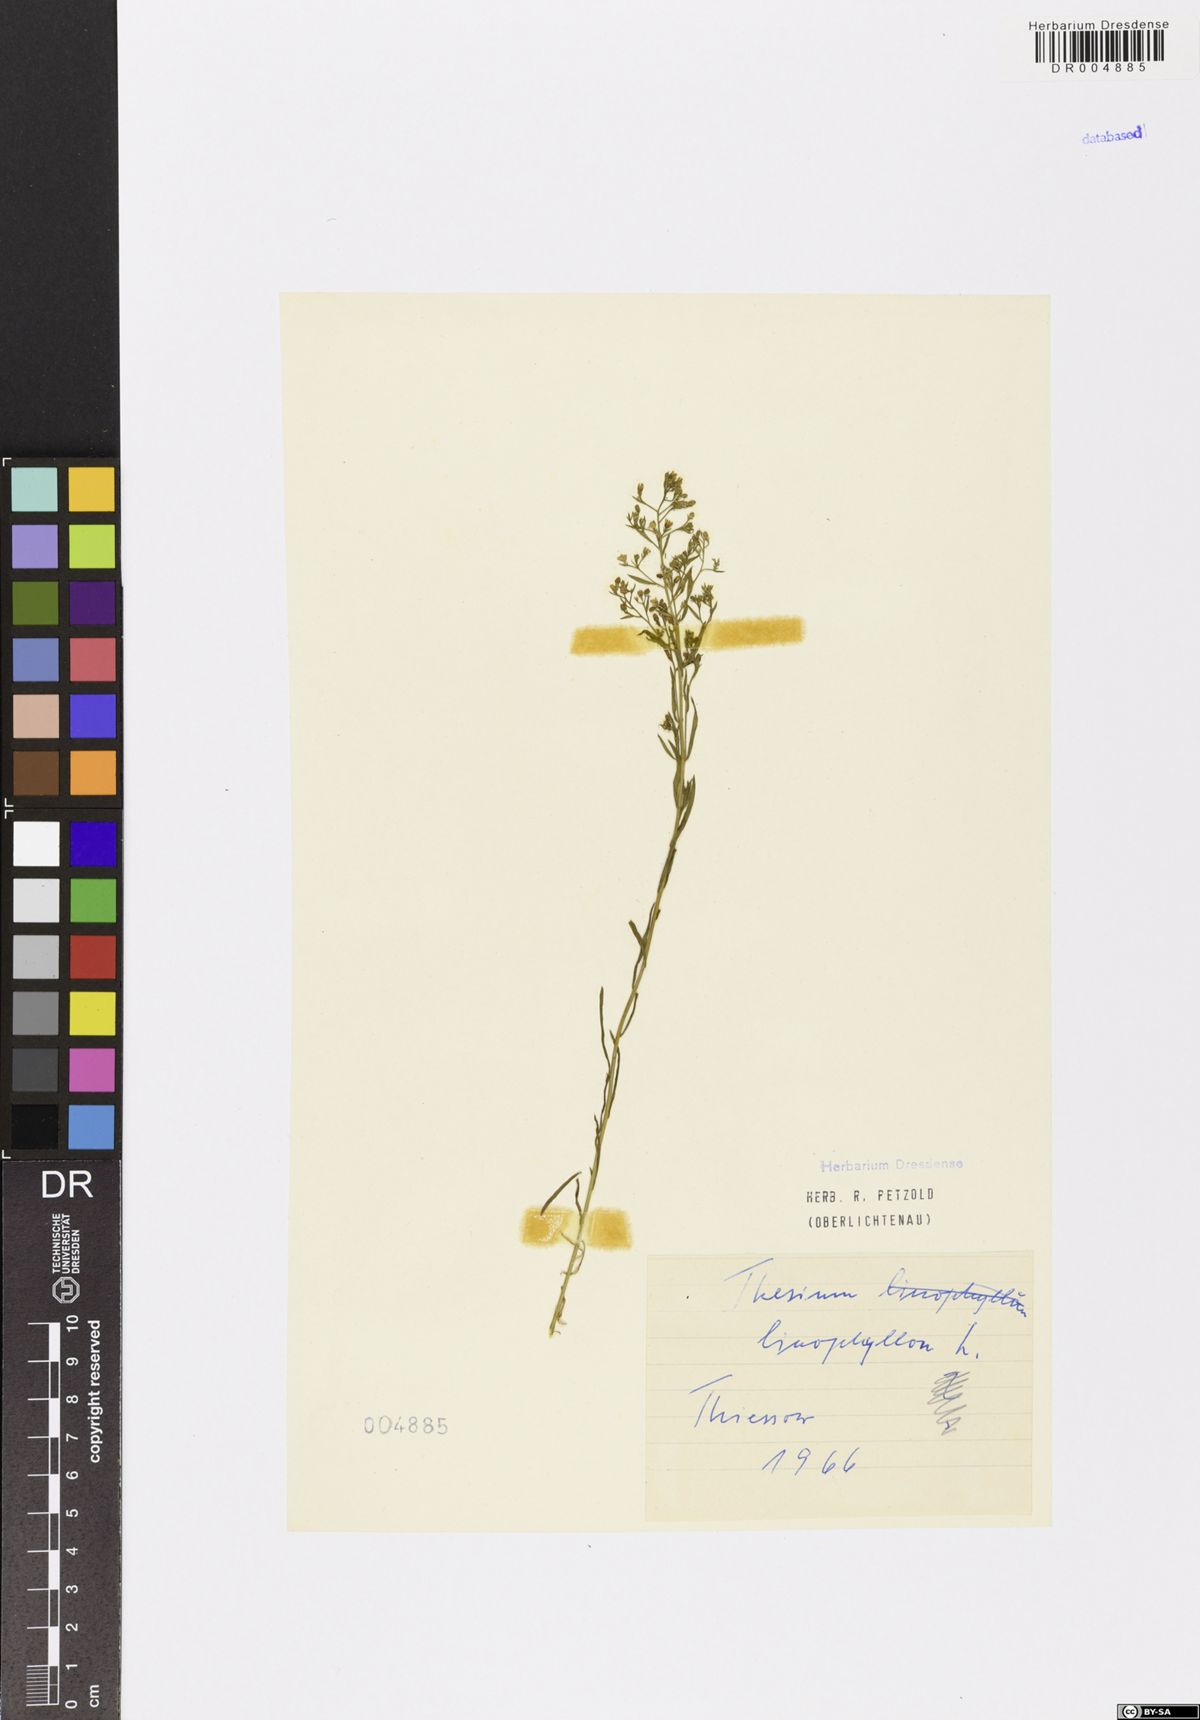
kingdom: Plantae
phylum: Tracheophyta
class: Magnoliopsida
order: Santalales
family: Thesiaceae
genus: Thesium
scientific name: Thesium linophyllon
